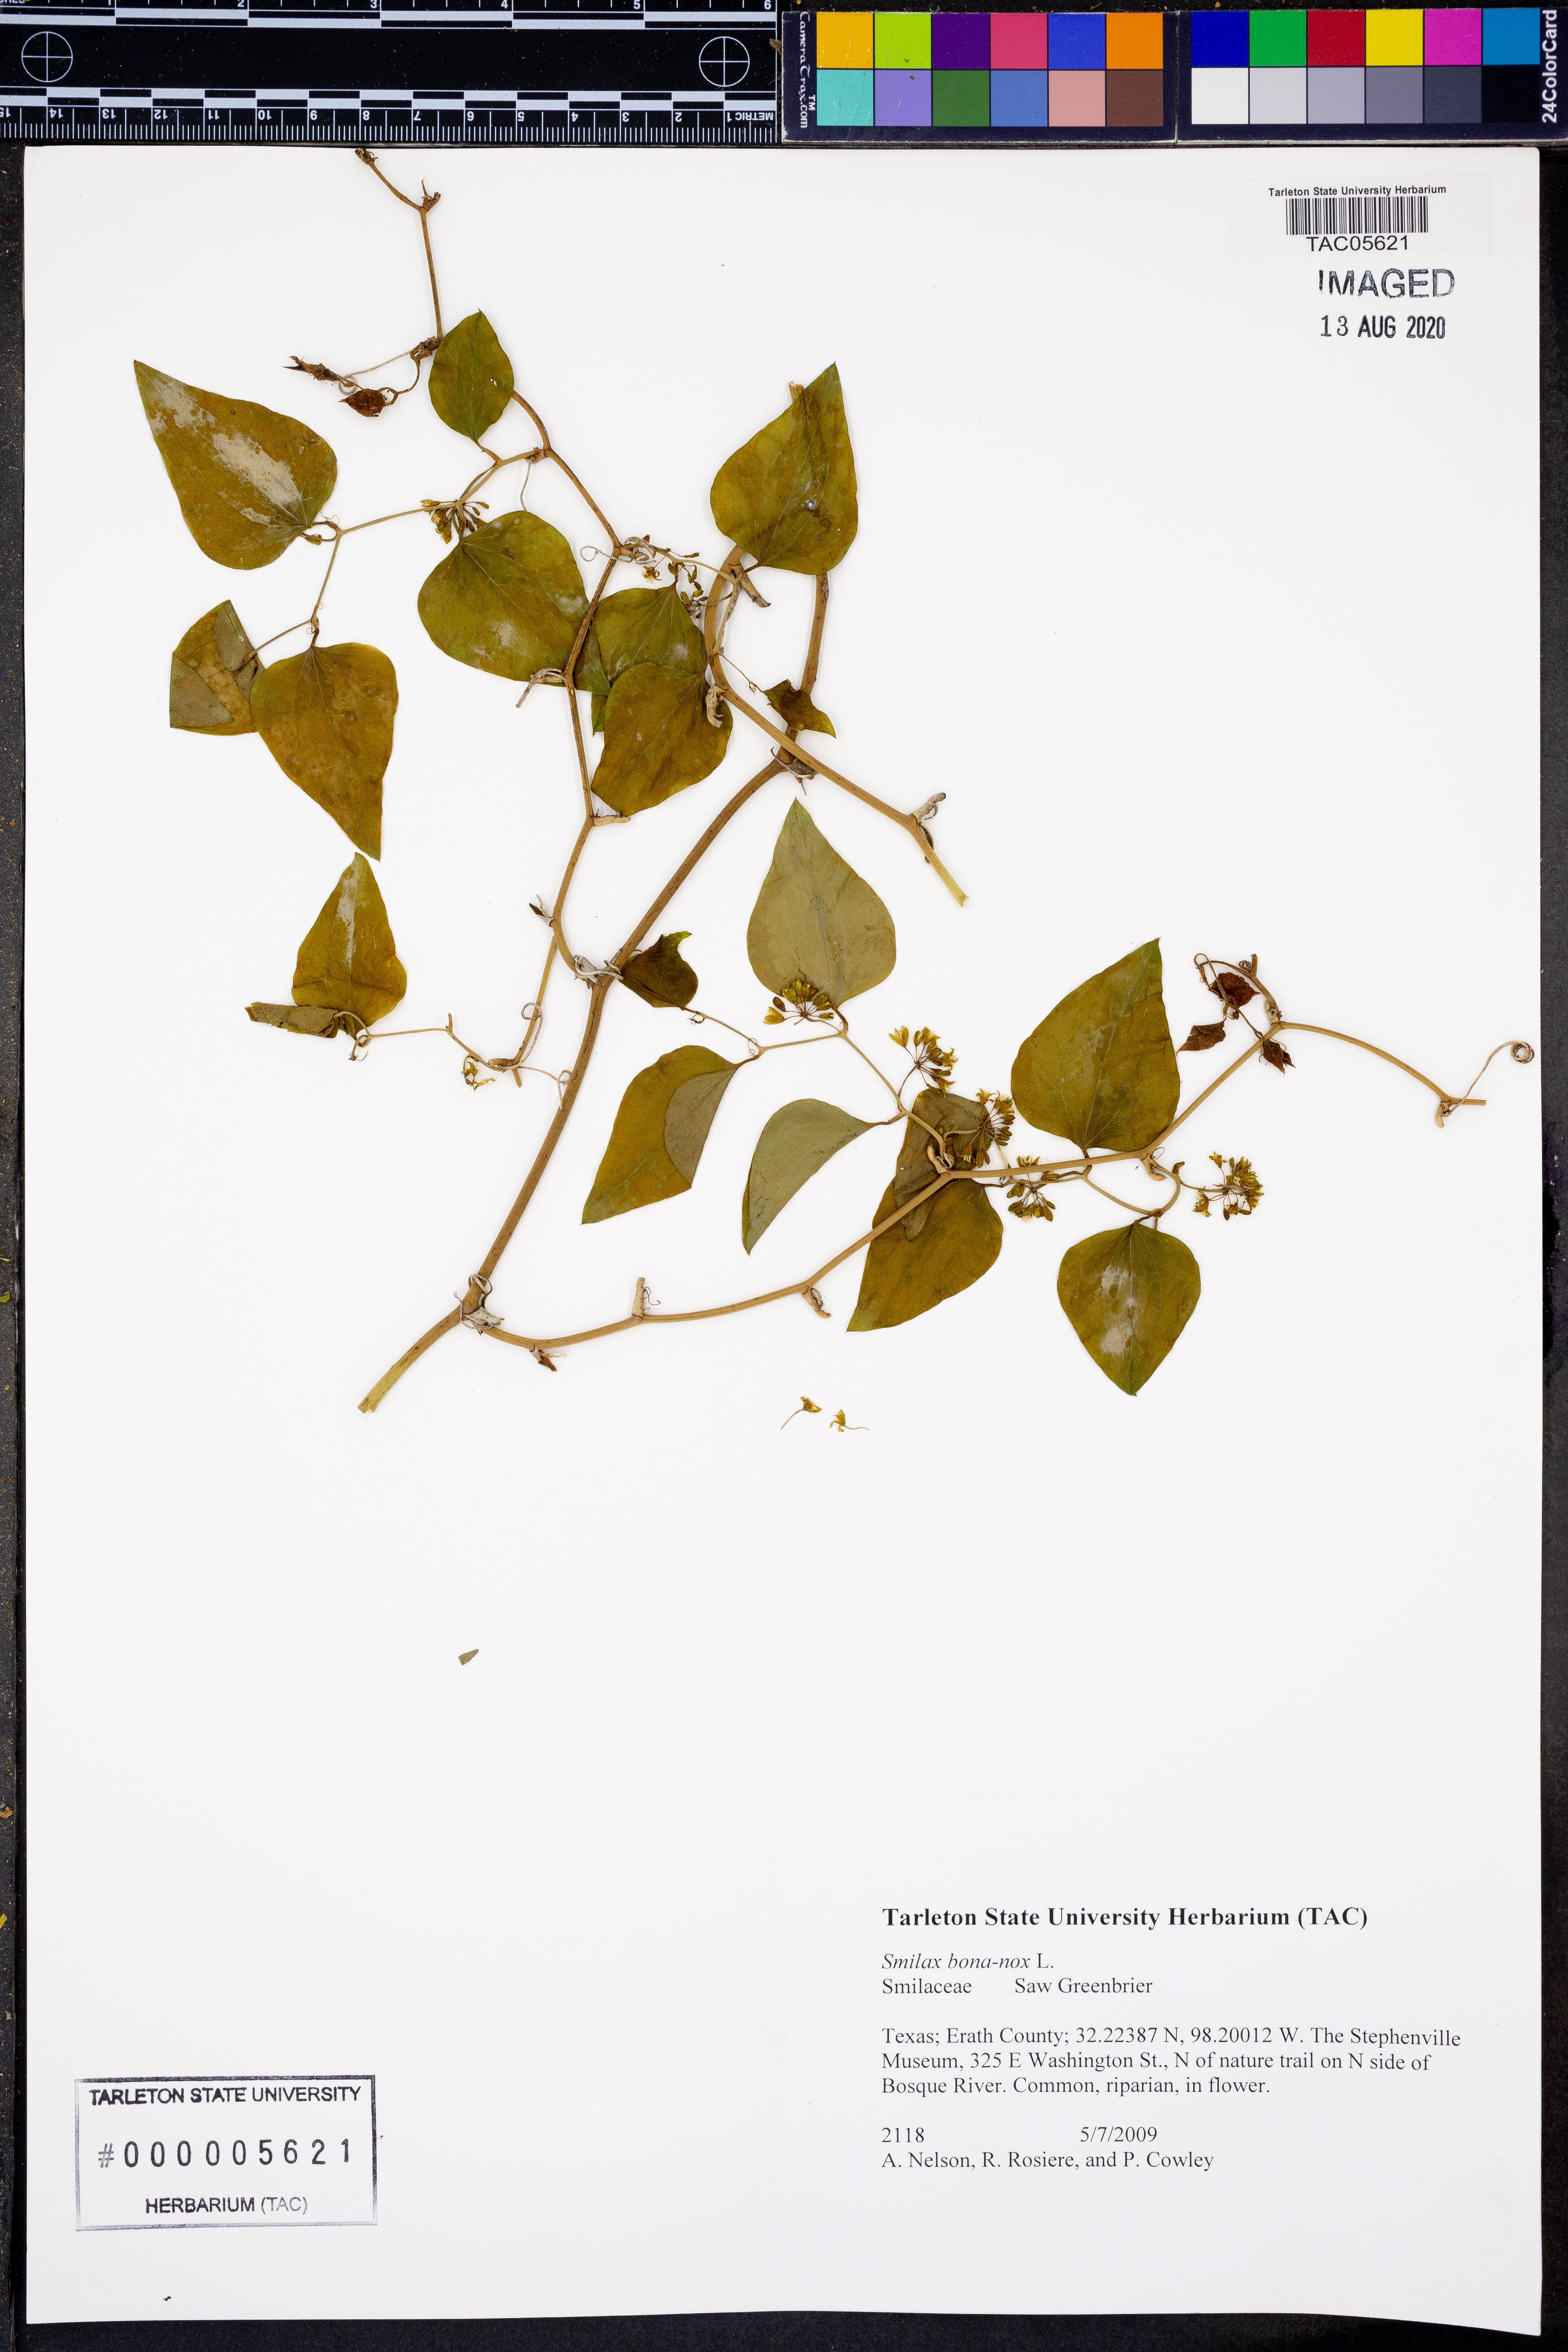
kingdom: Plantae
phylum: Tracheophyta
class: Liliopsida
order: Liliales
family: Smilacaceae
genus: Smilax
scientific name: Smilax bona-nox
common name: Catbrier
